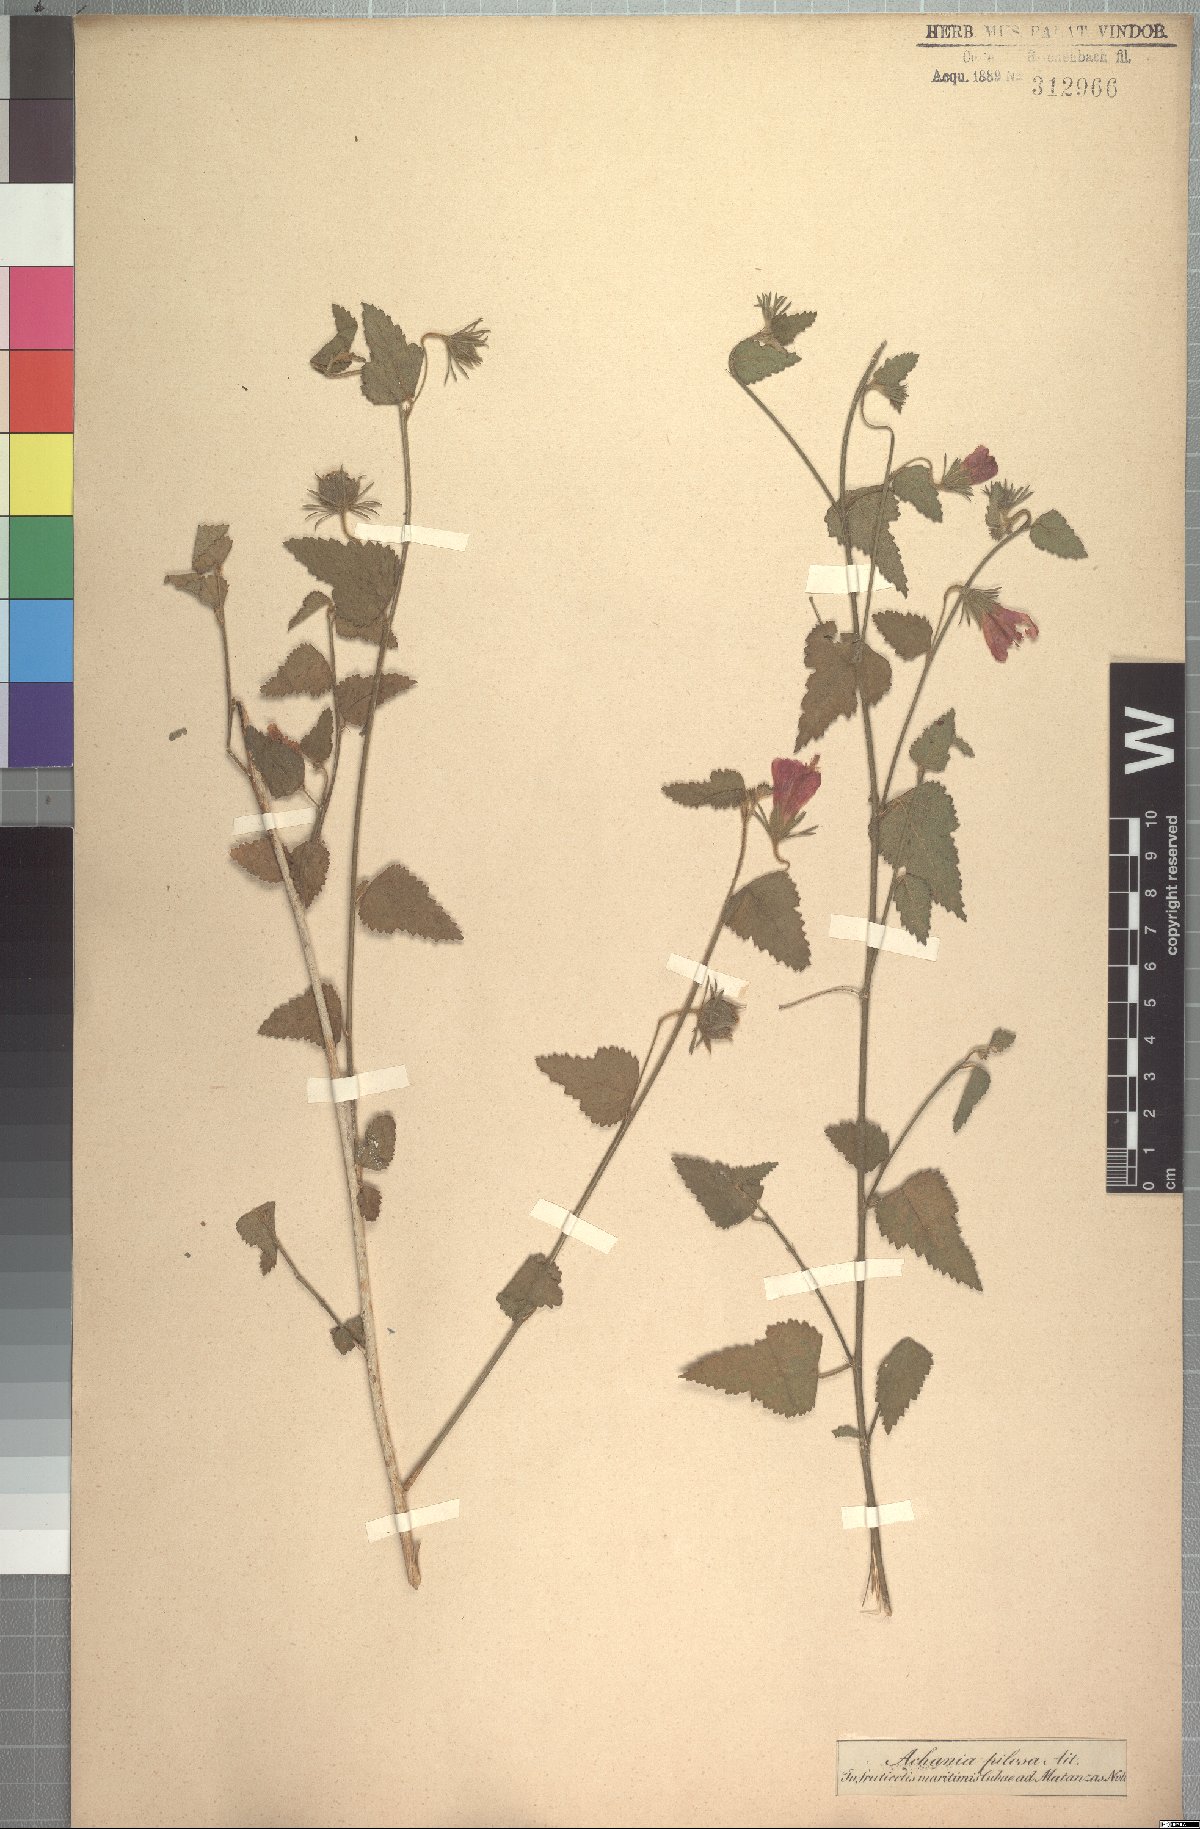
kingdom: Plantae
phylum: Tracheophyta
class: Magnoliopsida
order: Malvales
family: Malvaceae
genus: Malvaviscus
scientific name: Malvaviscus arboreus
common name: Wax mallow
